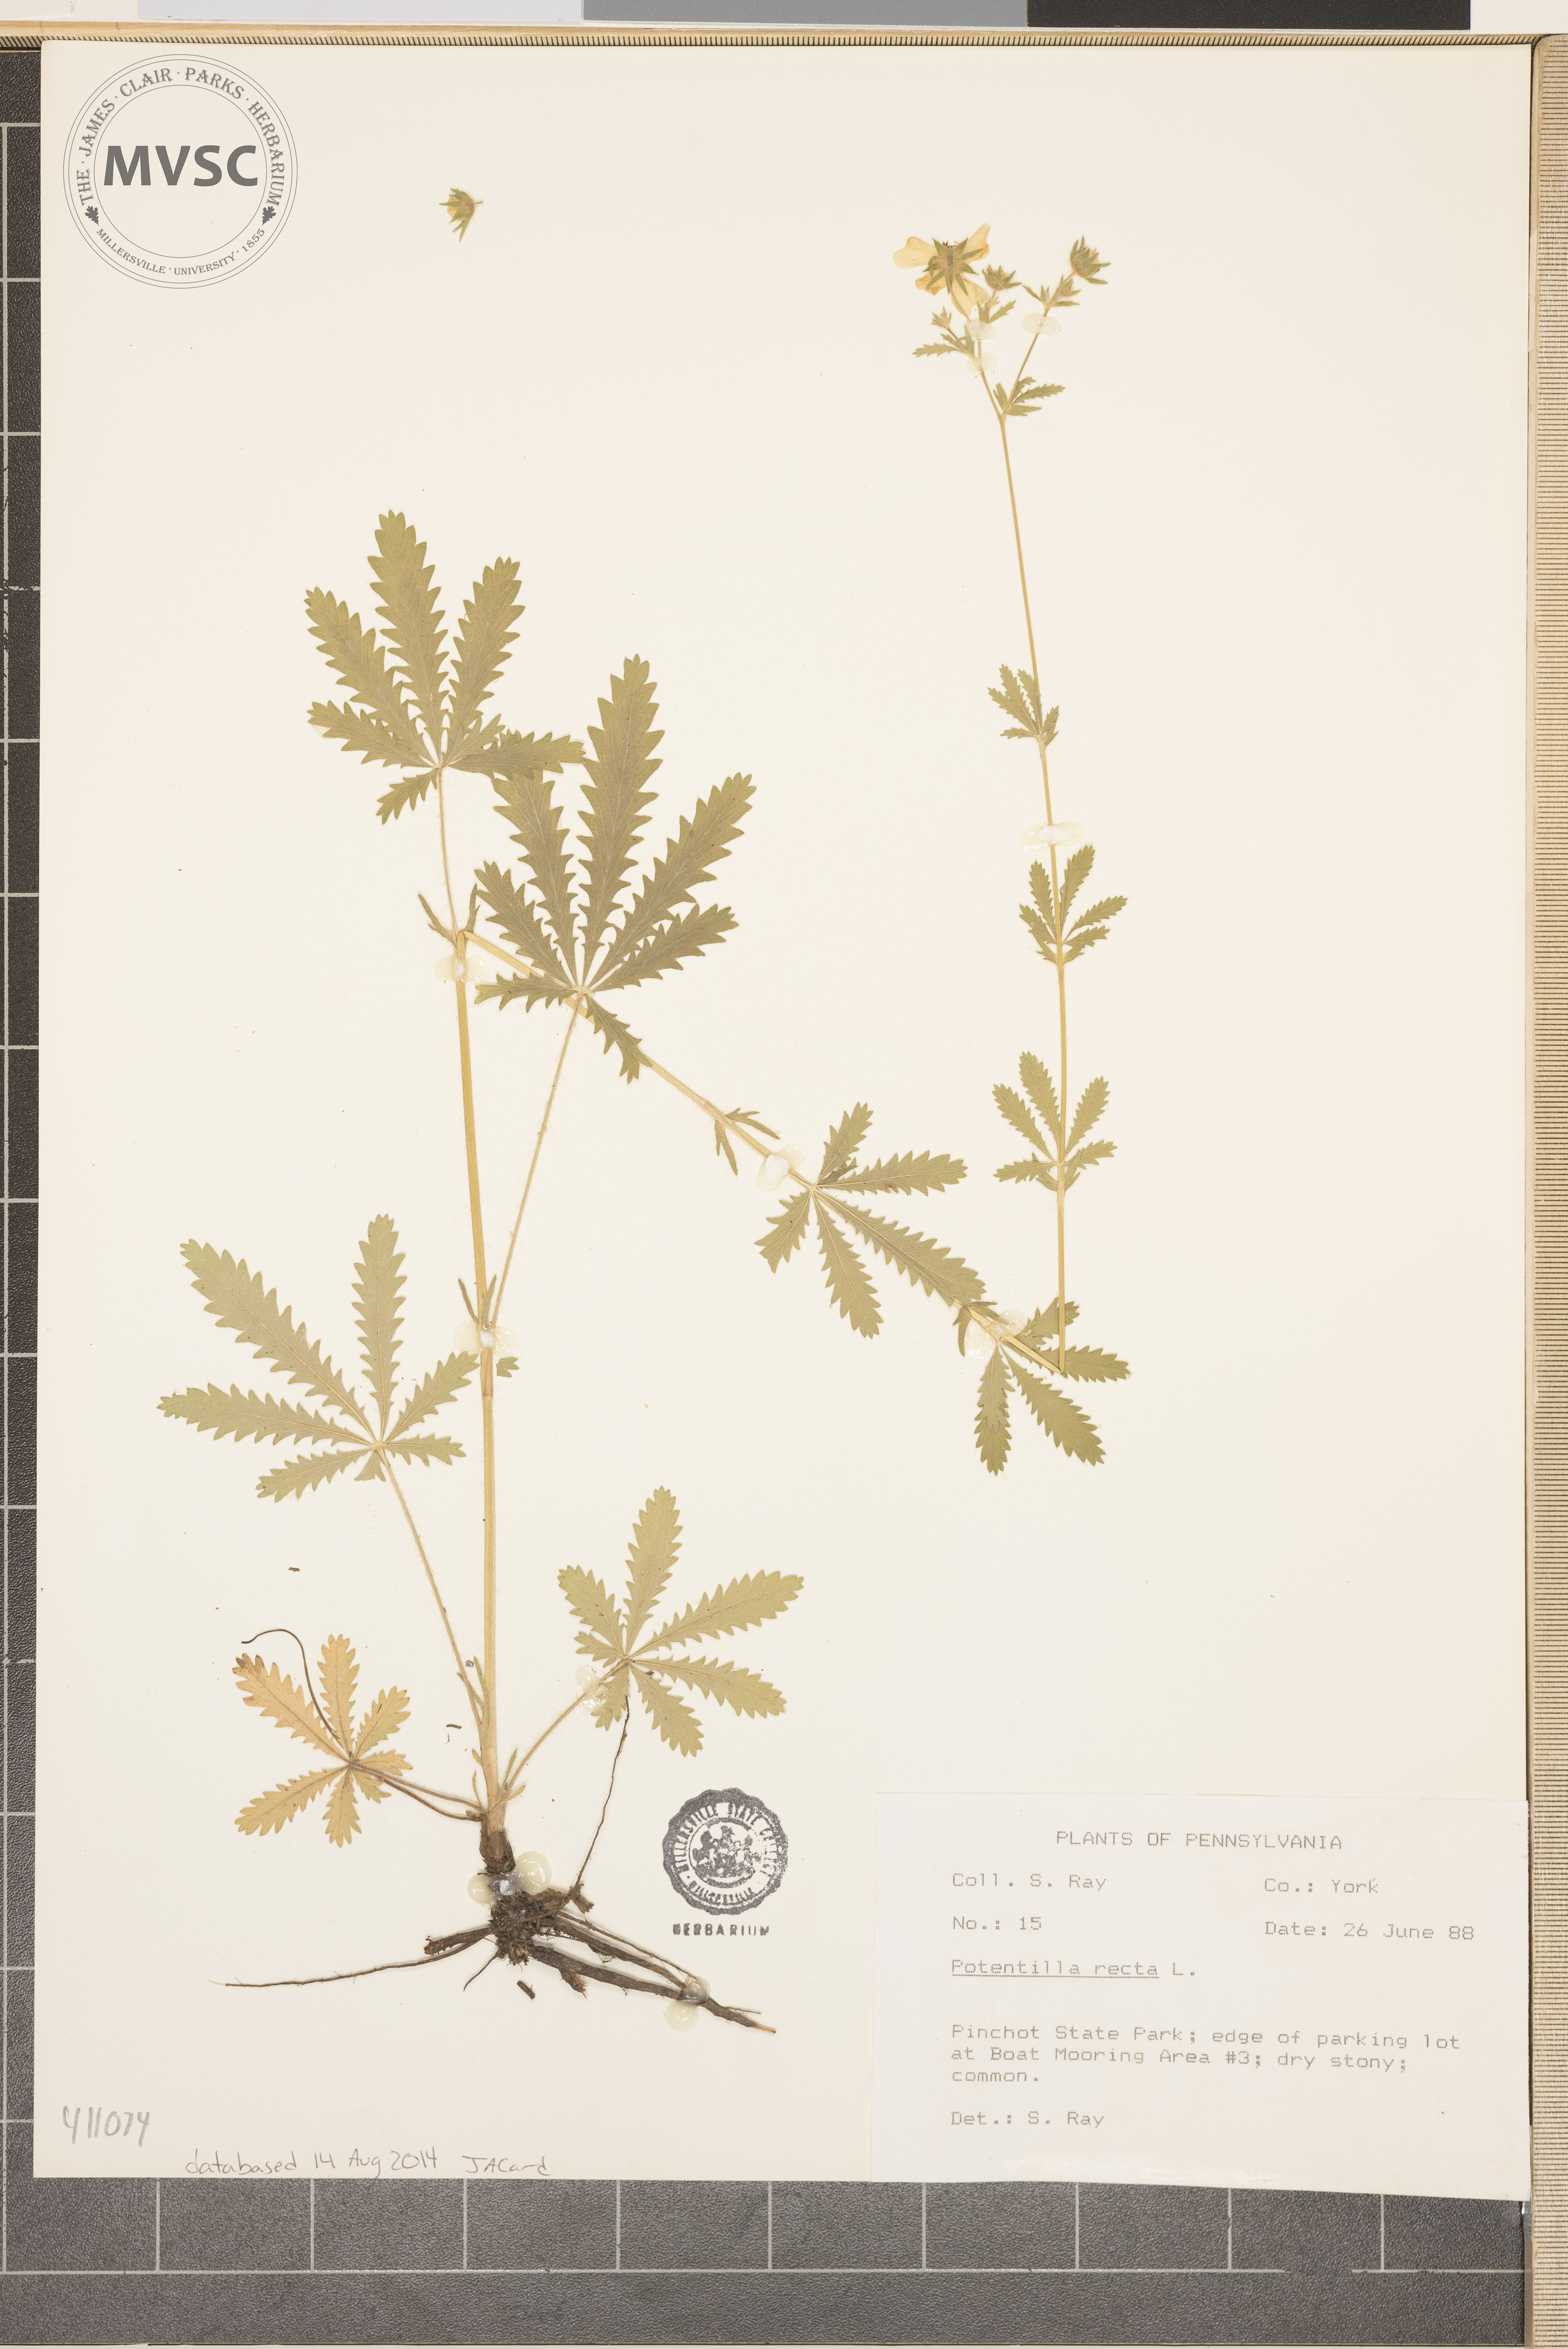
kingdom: Plantae
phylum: Tracheophyta
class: Magnoliopsida
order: Rosales
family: Rosaceae
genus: Potentilla
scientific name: Potentilla recta
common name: Sulphur cinquefoil
